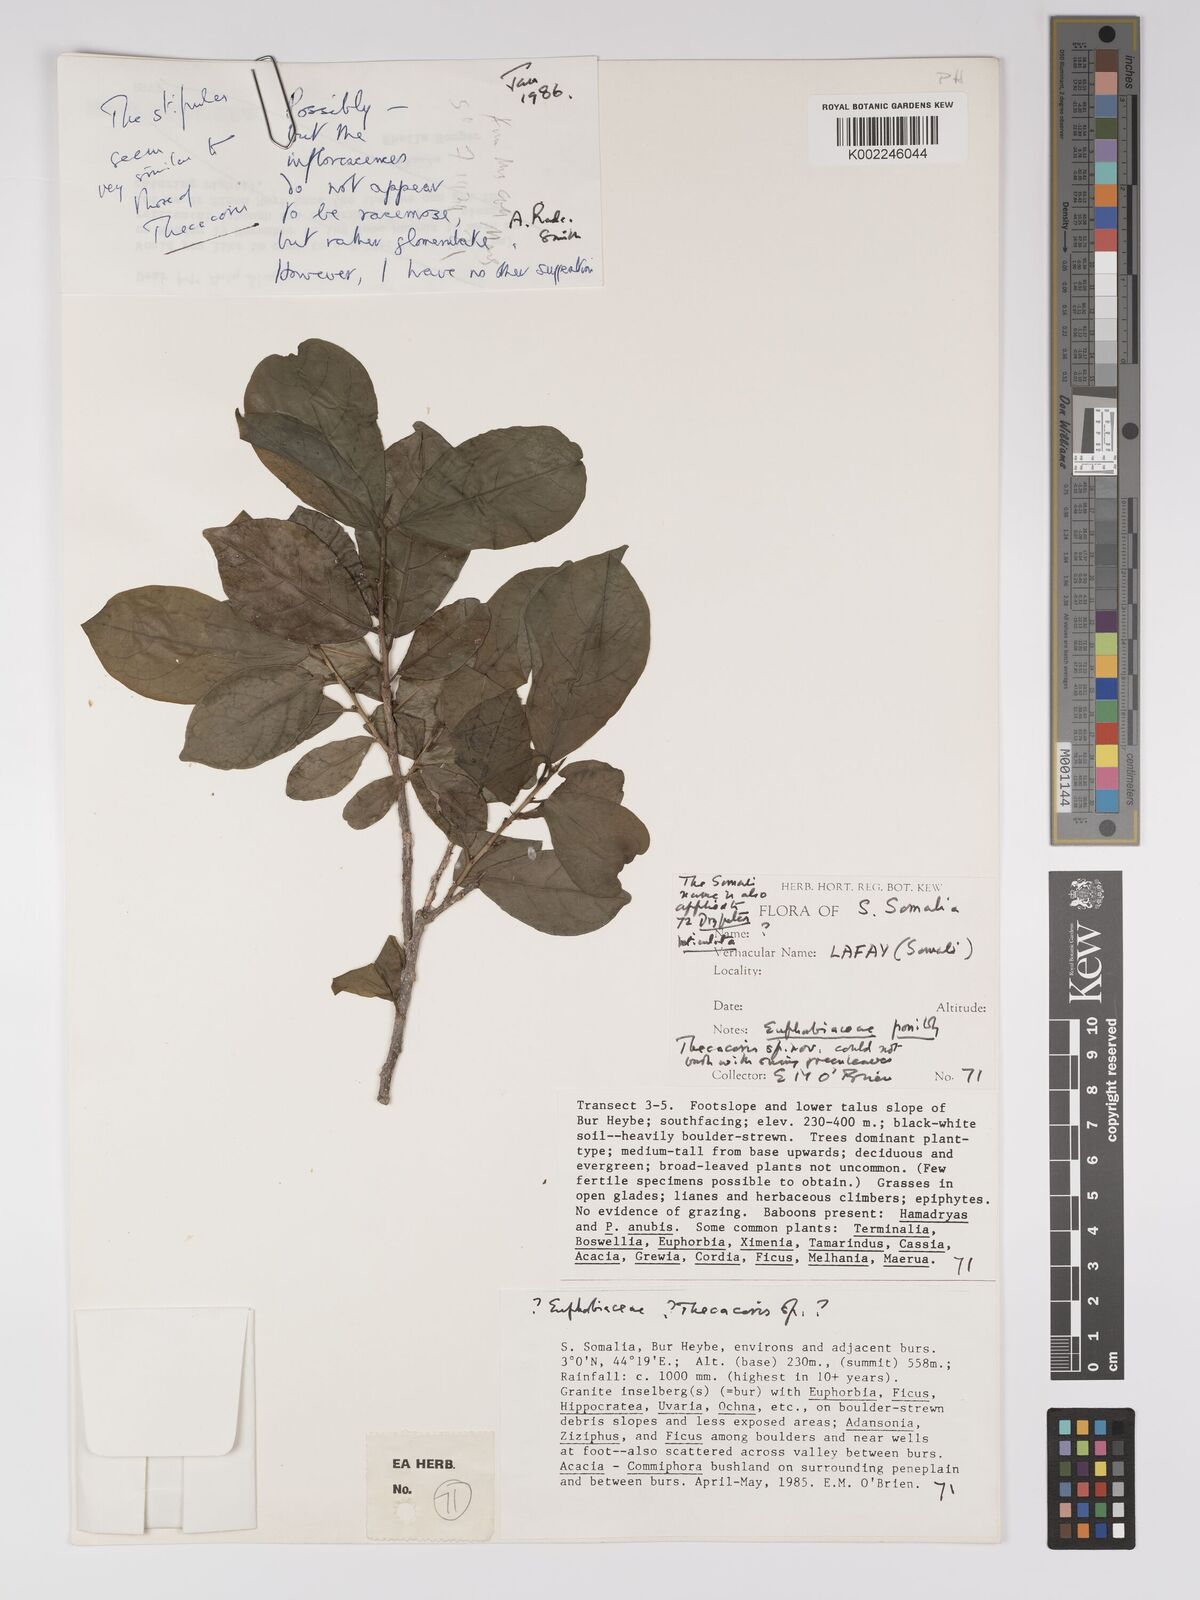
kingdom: Plantae
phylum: Tracheophyta
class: Magnoliopsida
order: Malpighiales
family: Euphorbiaceae
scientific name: Euphorbiaceae
